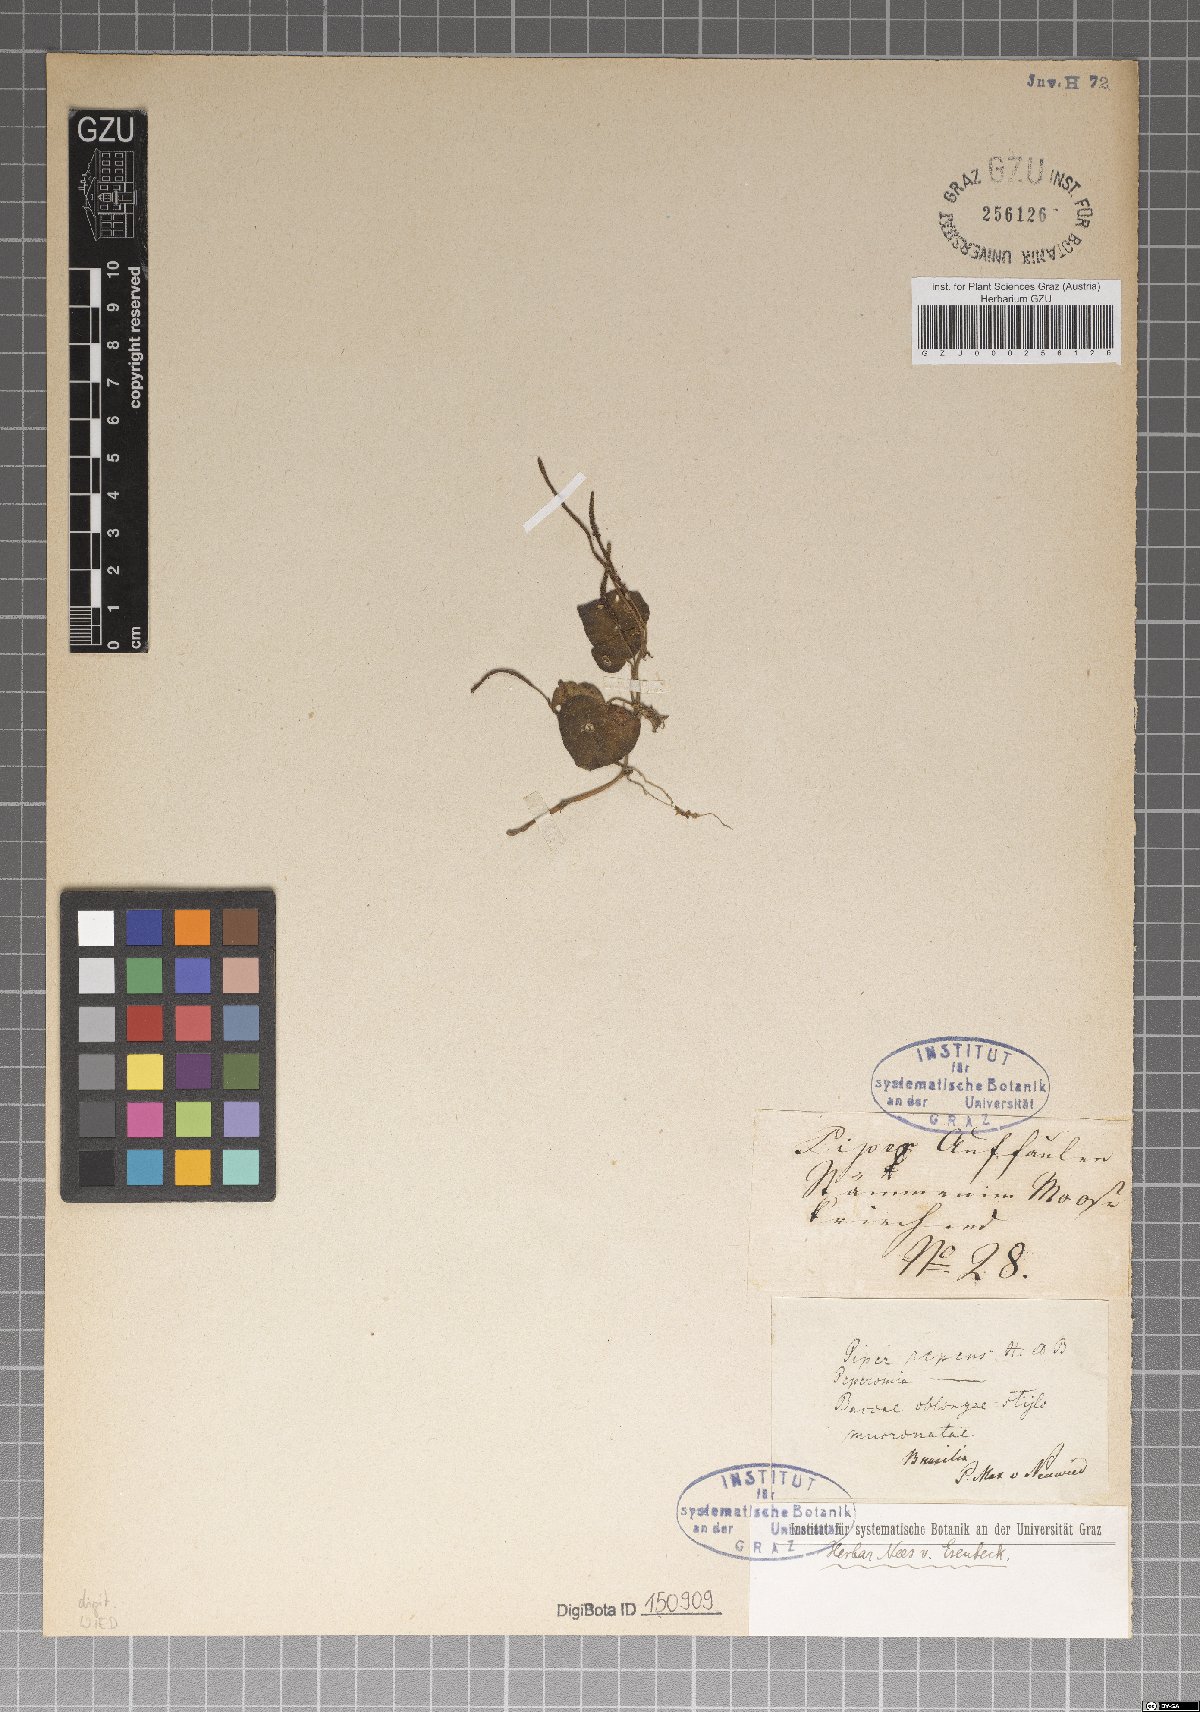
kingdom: Plantae
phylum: Tracheophyta
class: Magnoliopsida
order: Piperales
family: Piperaceae
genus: Peperomia
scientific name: Peperomia serpens
